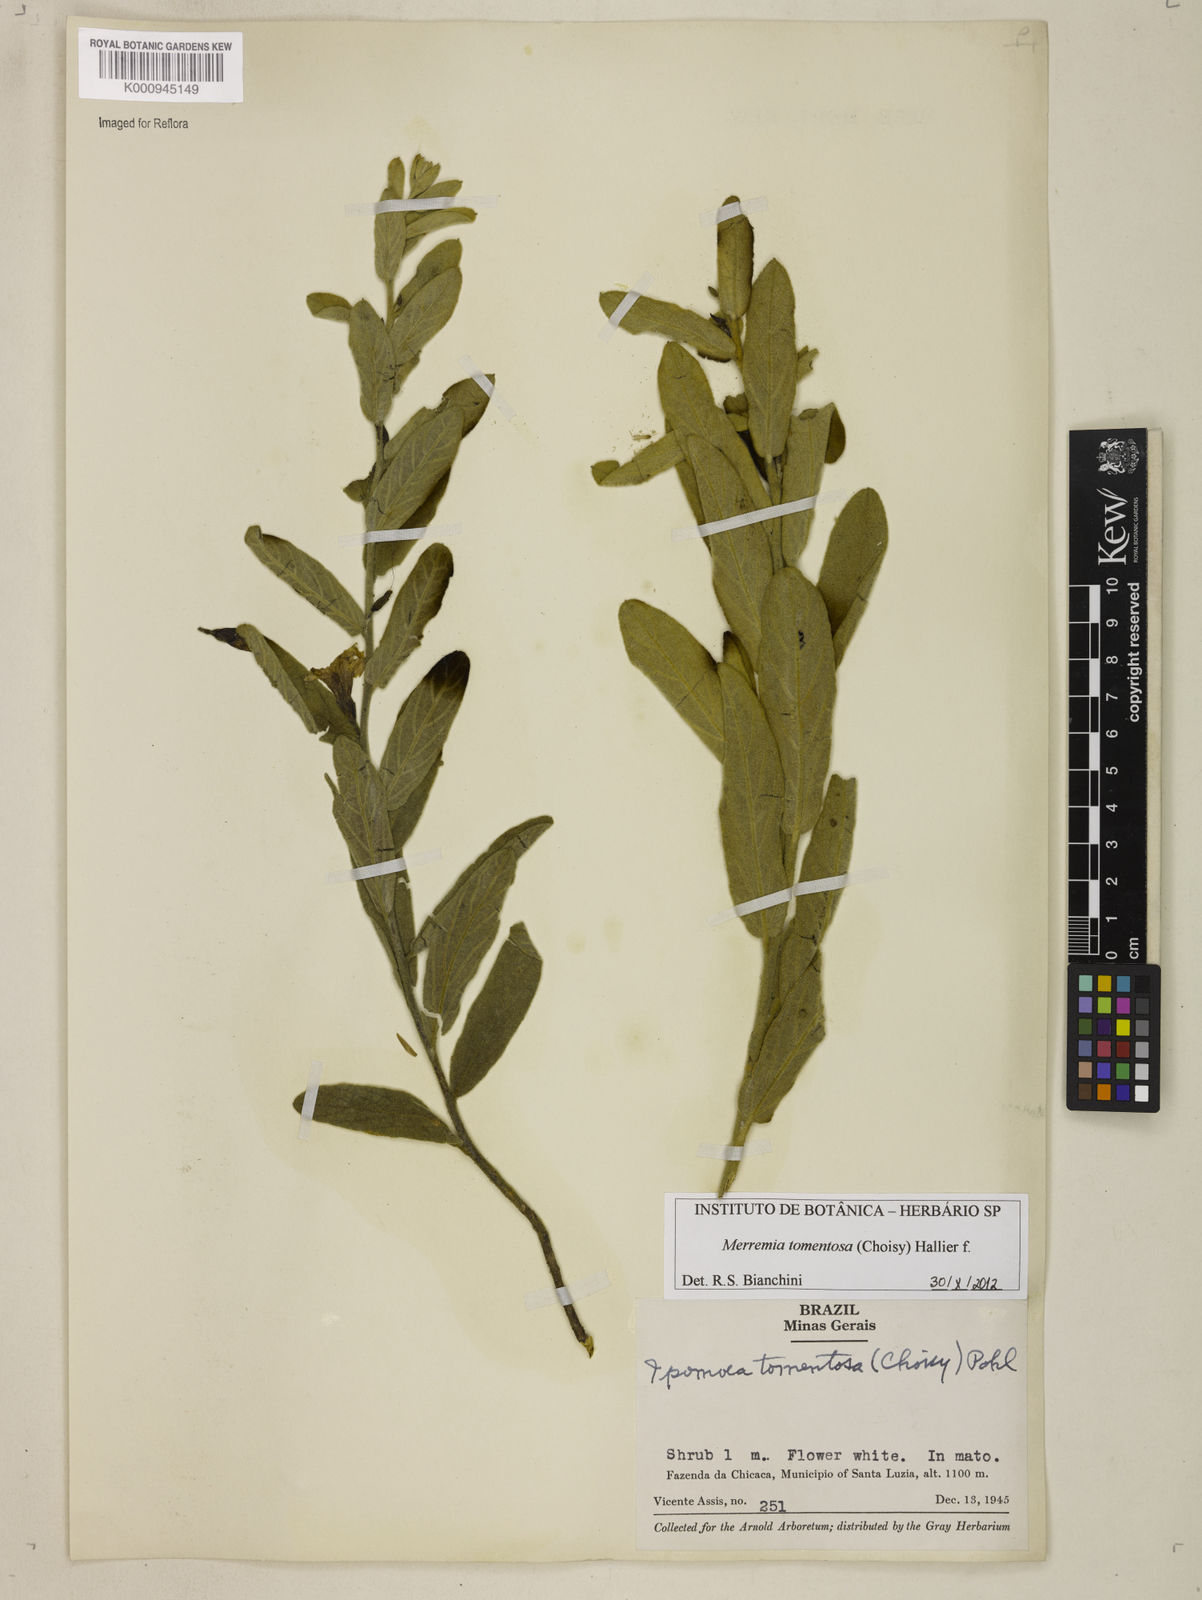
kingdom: Plantae
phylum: Tracheophyta
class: Magnoliopsida
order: Solanales
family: Convolvulaceae
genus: Distimake
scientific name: Distimake tomentosus
